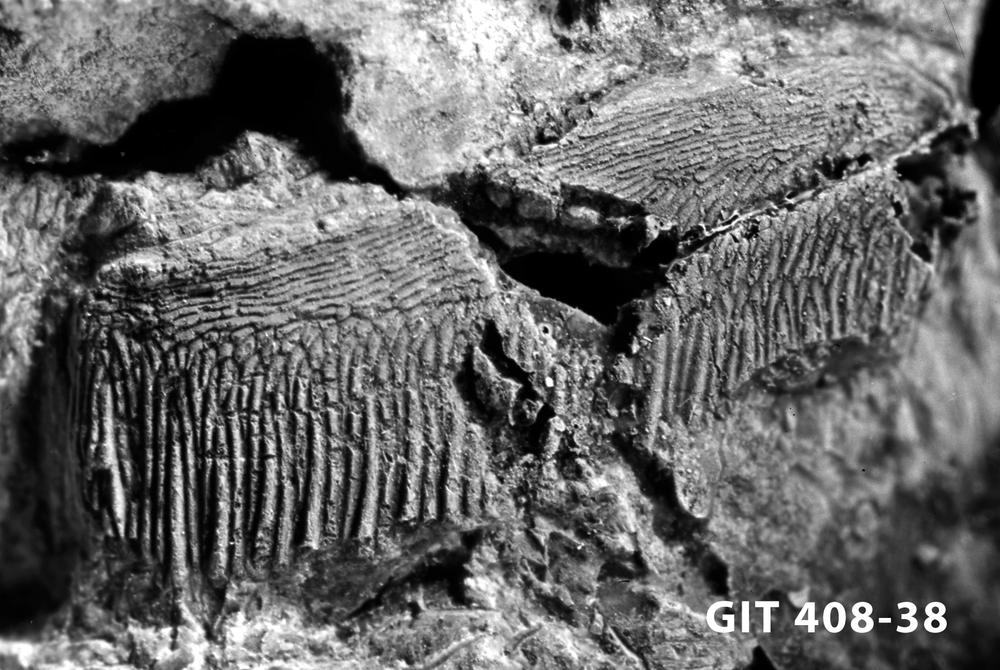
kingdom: Animalia
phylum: Chordata
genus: Archegonaspis
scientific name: Archegonaspis
